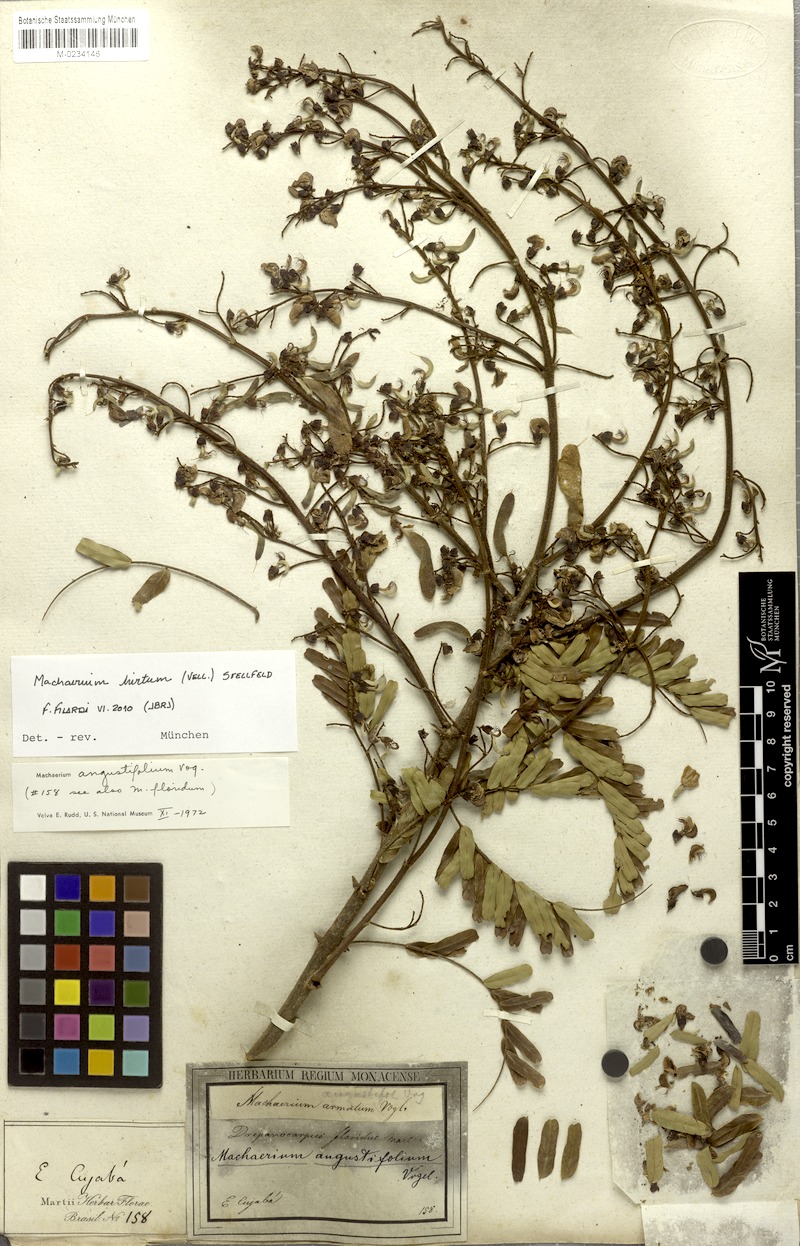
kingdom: Plantae
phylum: Tracheophyta
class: Magnoliopsida
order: Fabales
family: Fabaceae
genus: Machaerium
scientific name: Machaerium hirtum
